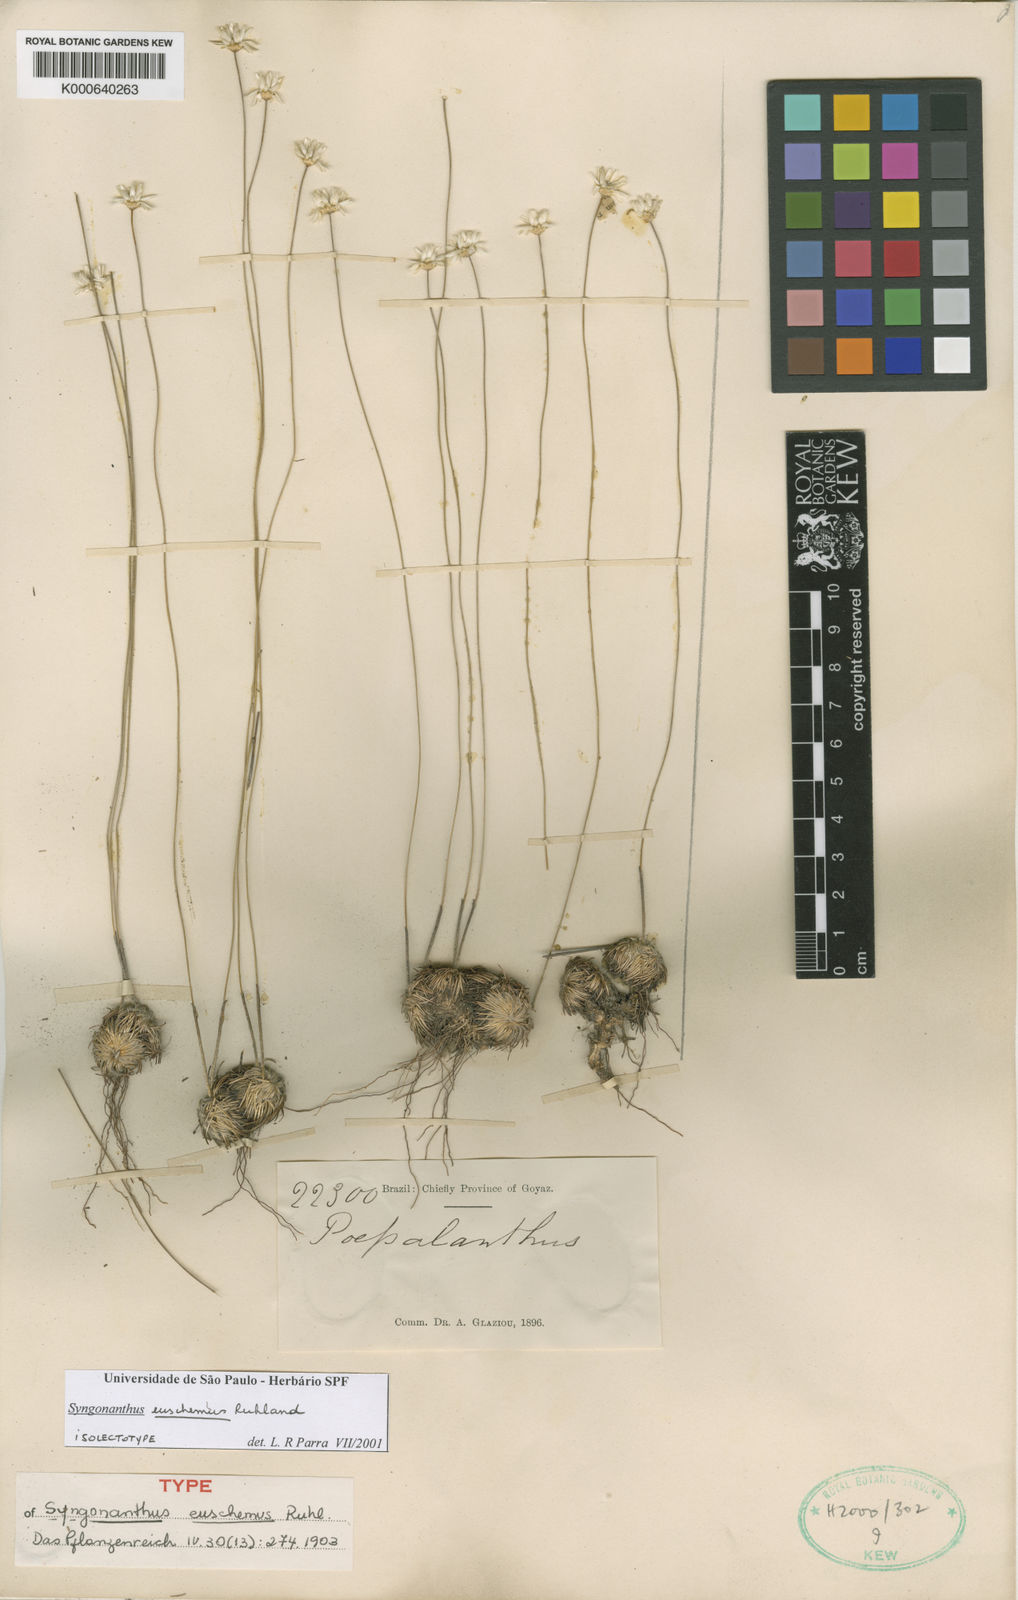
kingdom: Plantae
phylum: Tracheophyta
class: Liliopsida
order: Poales
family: Eriocaulaceae
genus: Comanthera
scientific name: Comanthera euschemus
